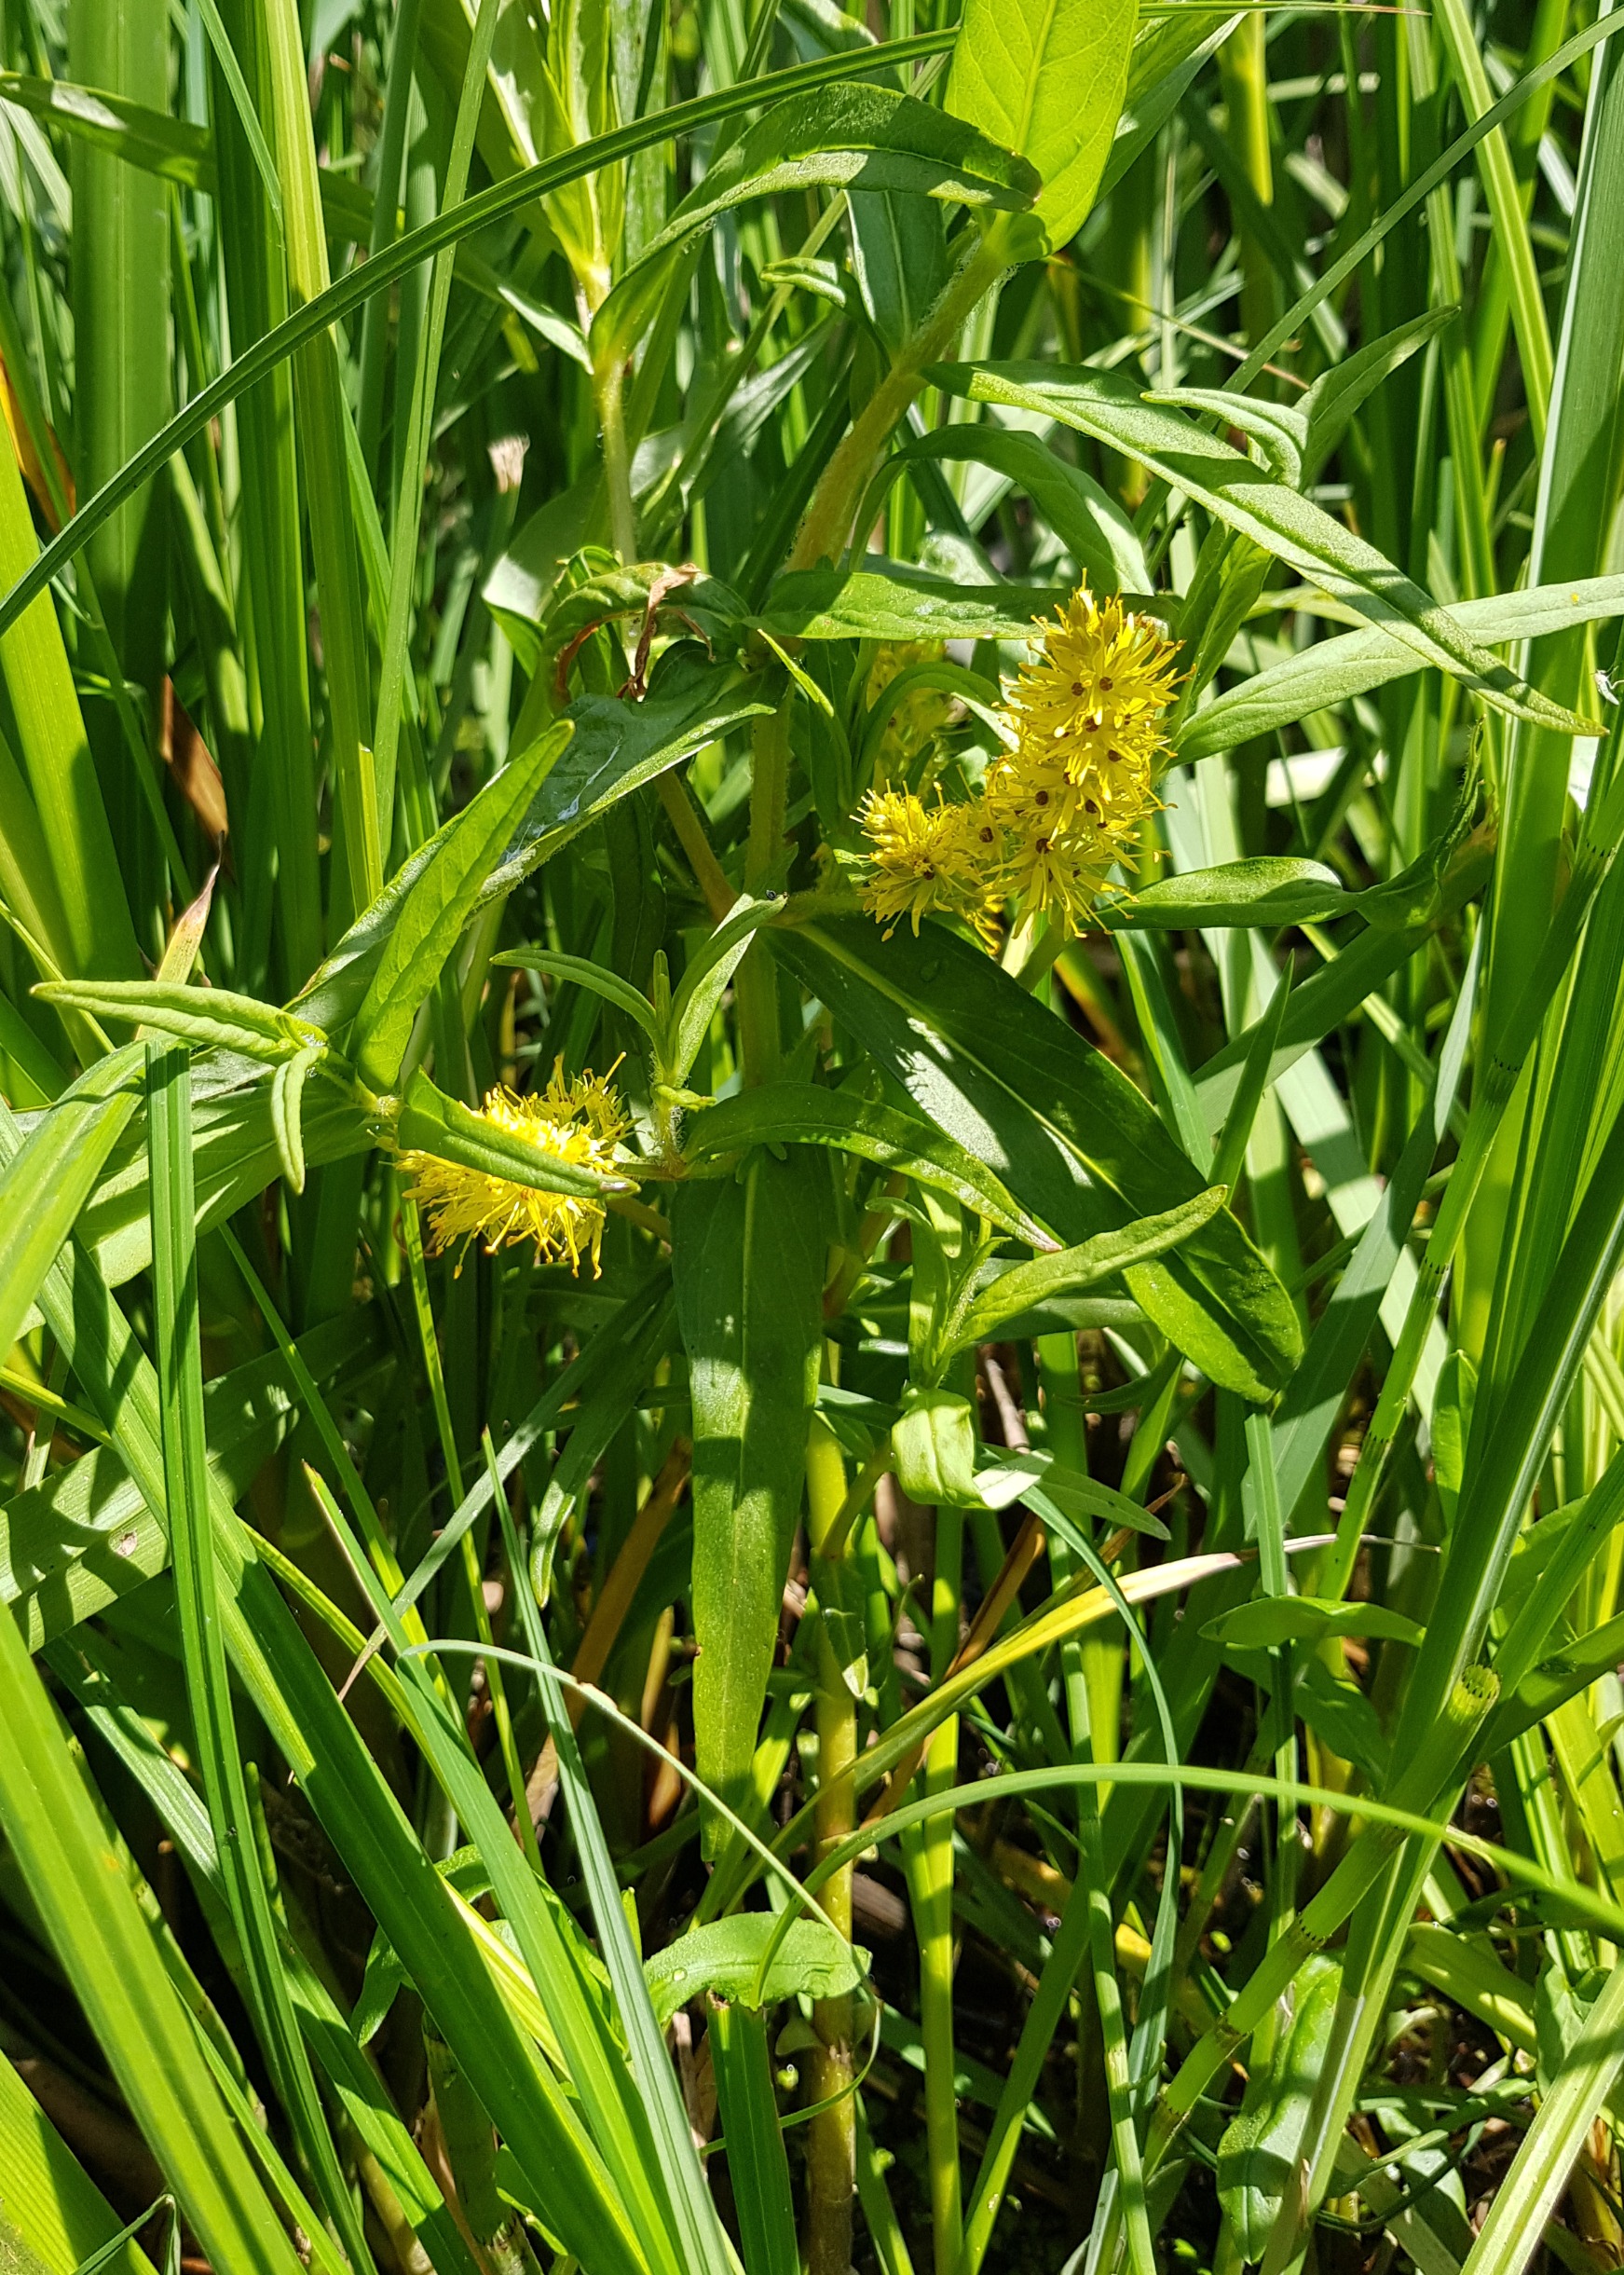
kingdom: Plantae
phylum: Tracheophyta
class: Magnoliopsida
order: Ericales
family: Primulaceae
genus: Lysimachia
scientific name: Lysimachia thyrsiflora
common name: Dusk-fredløs
